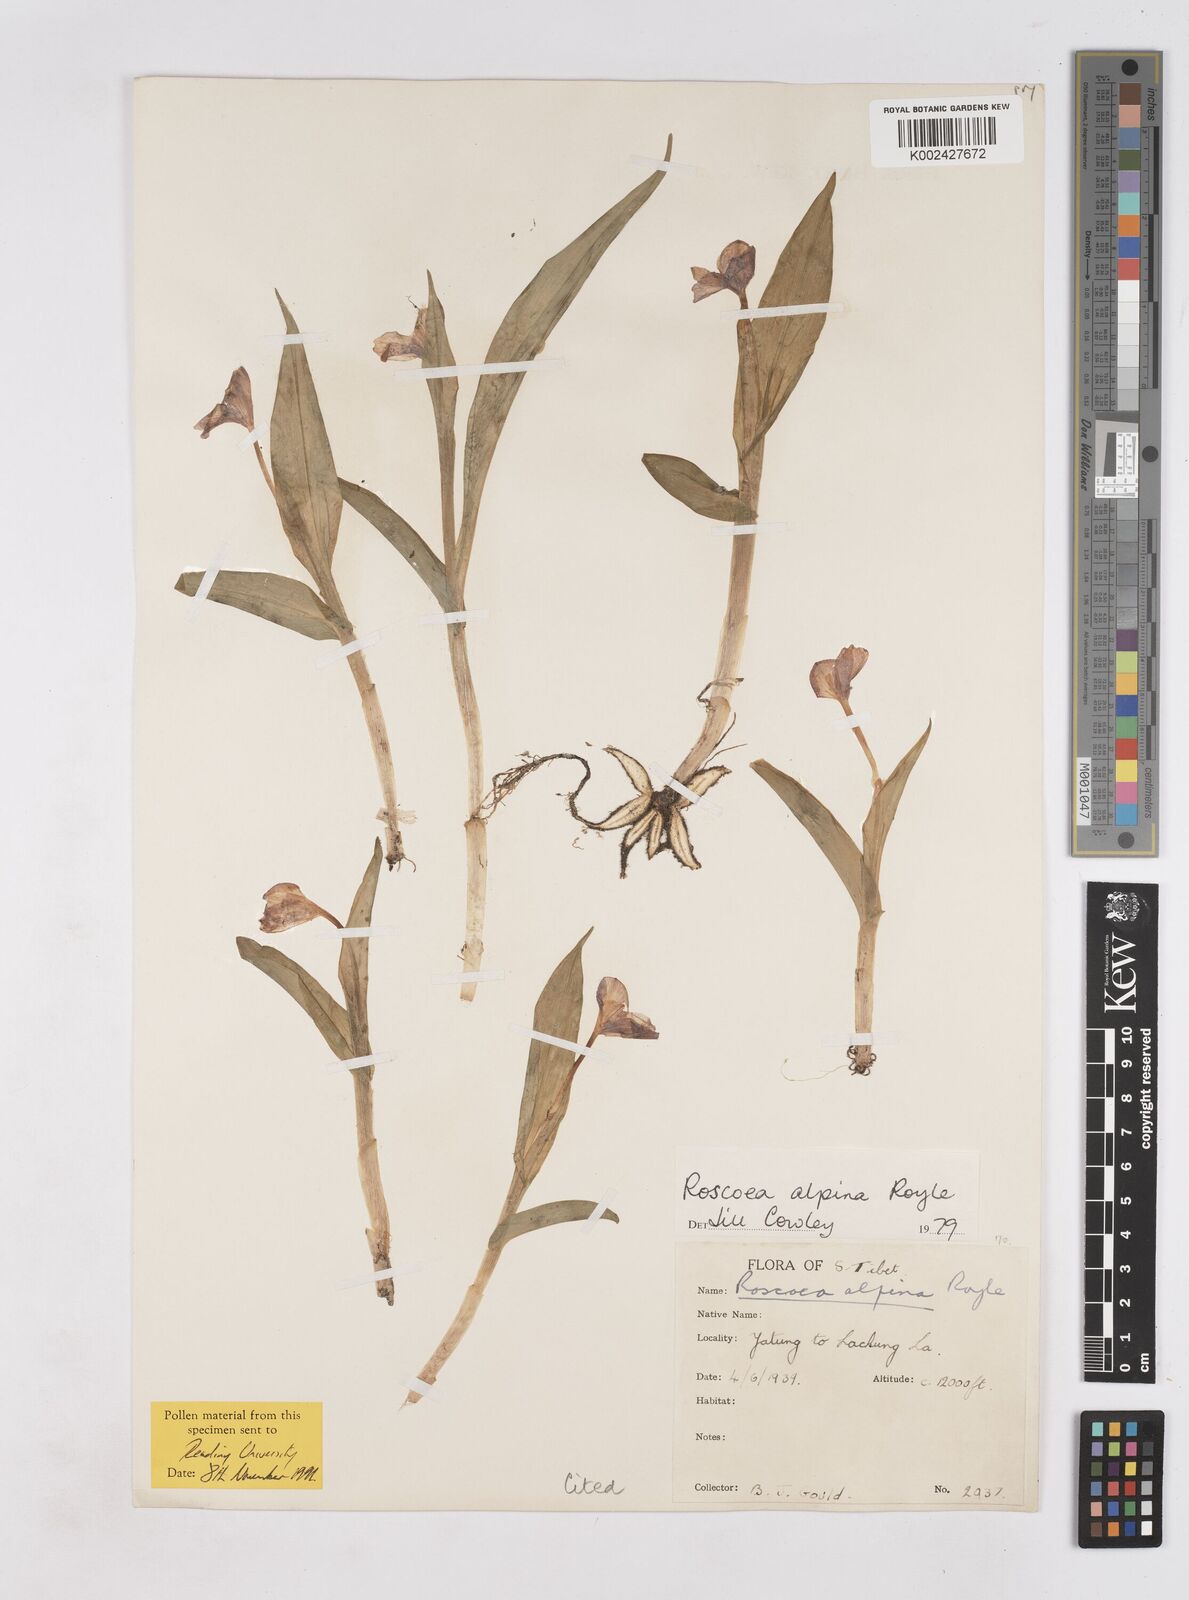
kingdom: Plantae
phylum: Tracheophyta
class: Liliopsida
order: Zingiberales
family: Zingiberaceae
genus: Roscoea
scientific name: Roscoea alpina
